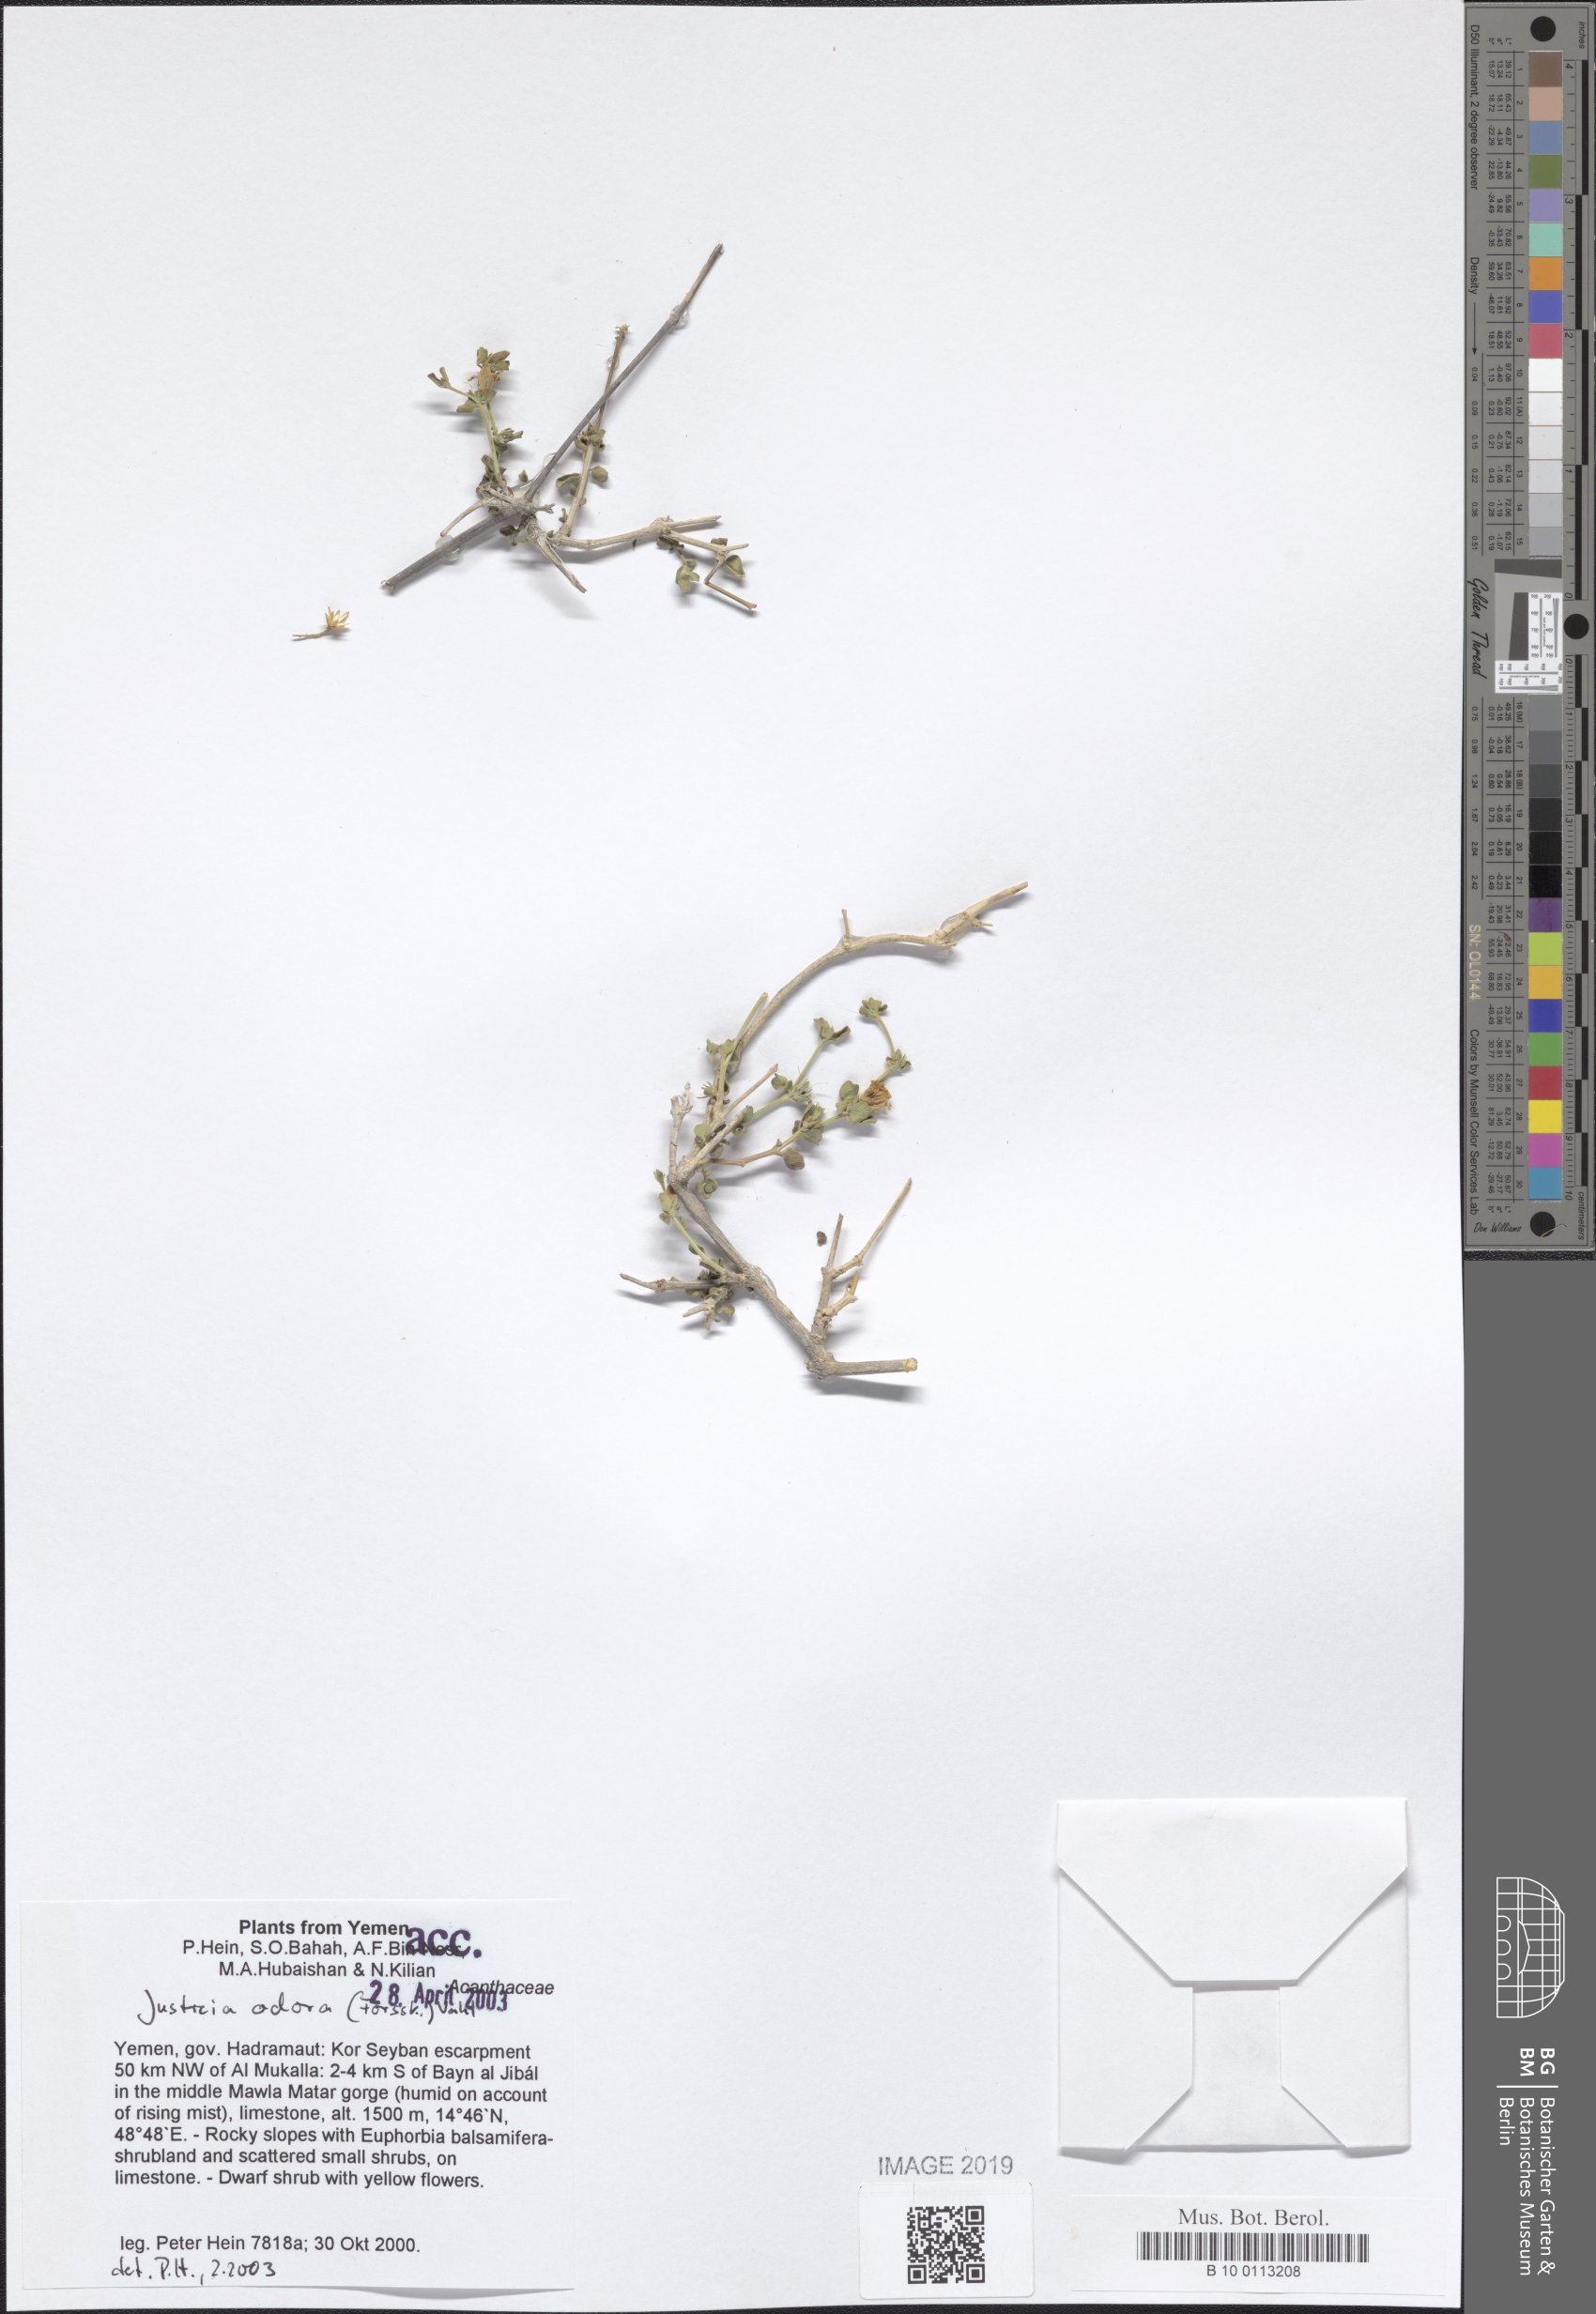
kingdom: Plantae
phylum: Tracheophyta
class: Magnoliopsida
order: Lamiales
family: Acanthaceae
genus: Justicia
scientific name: Justicia odora
